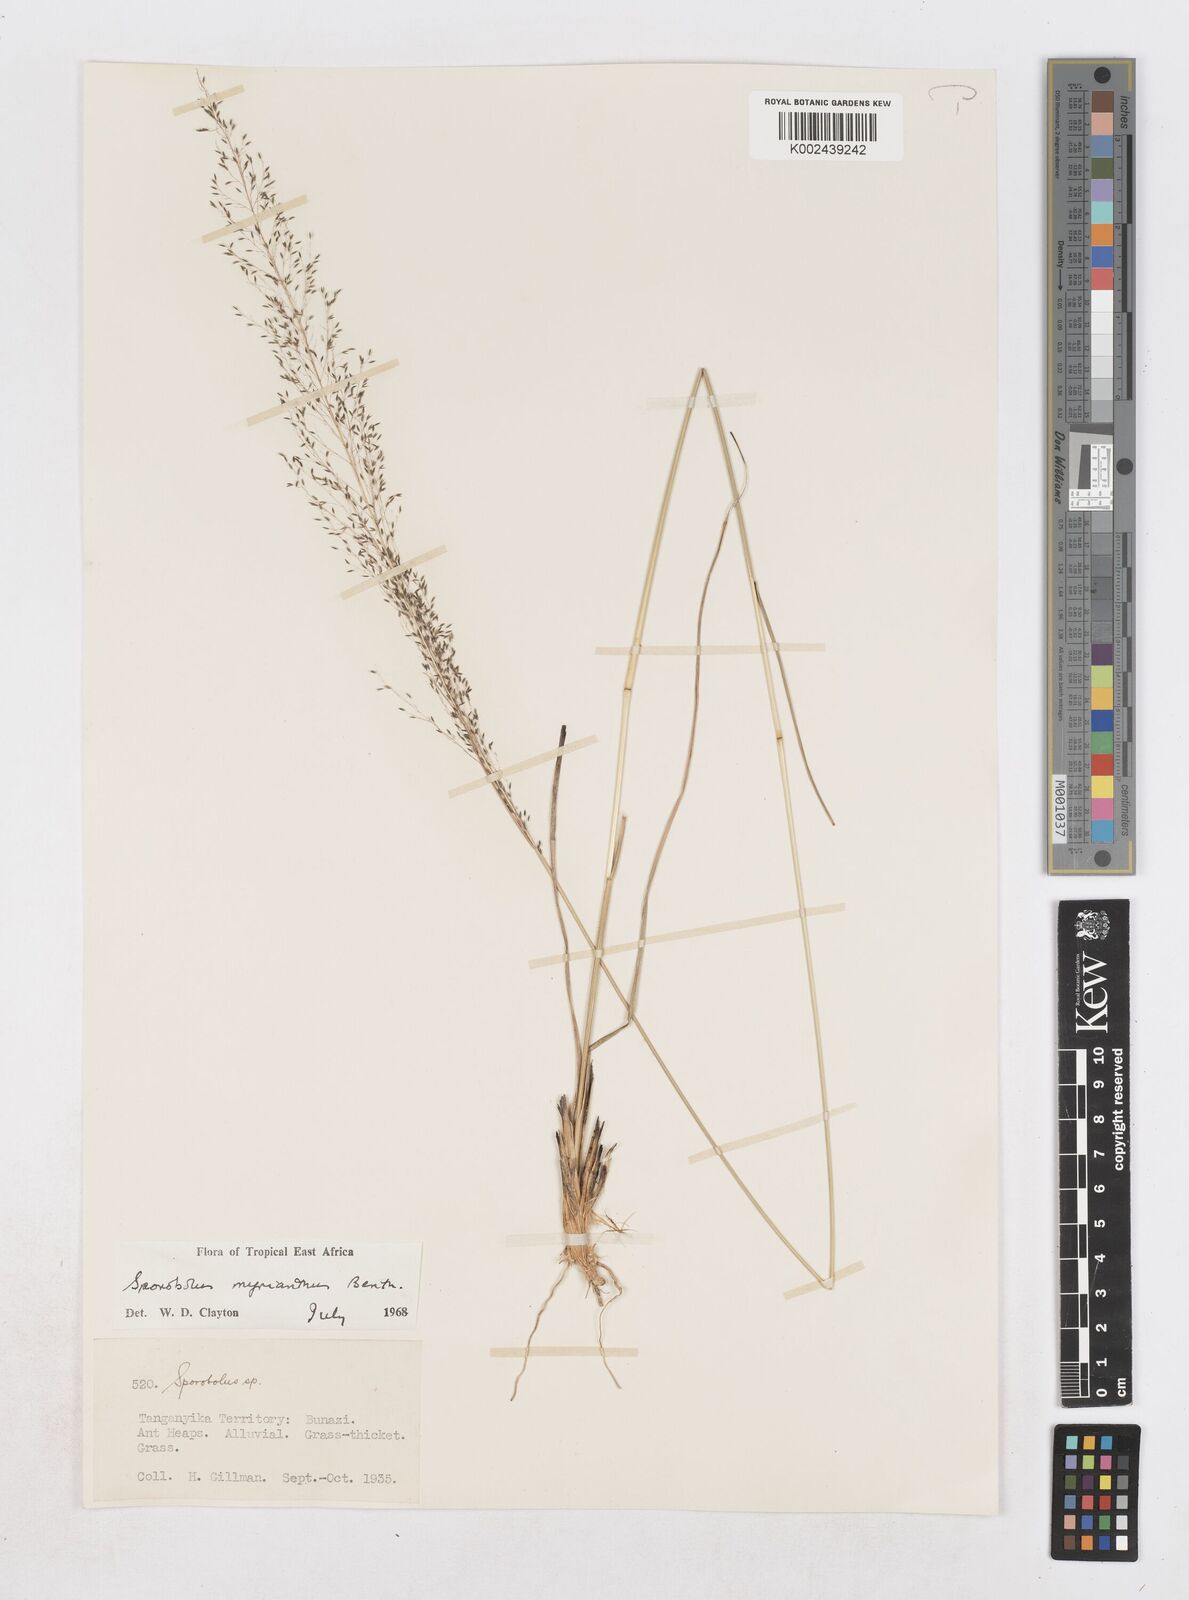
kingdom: Plantae
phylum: Tracheophyta
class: Liliopsida
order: Poales
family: Poaceae
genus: Sporobolus
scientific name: Sporobolus myrianthus
